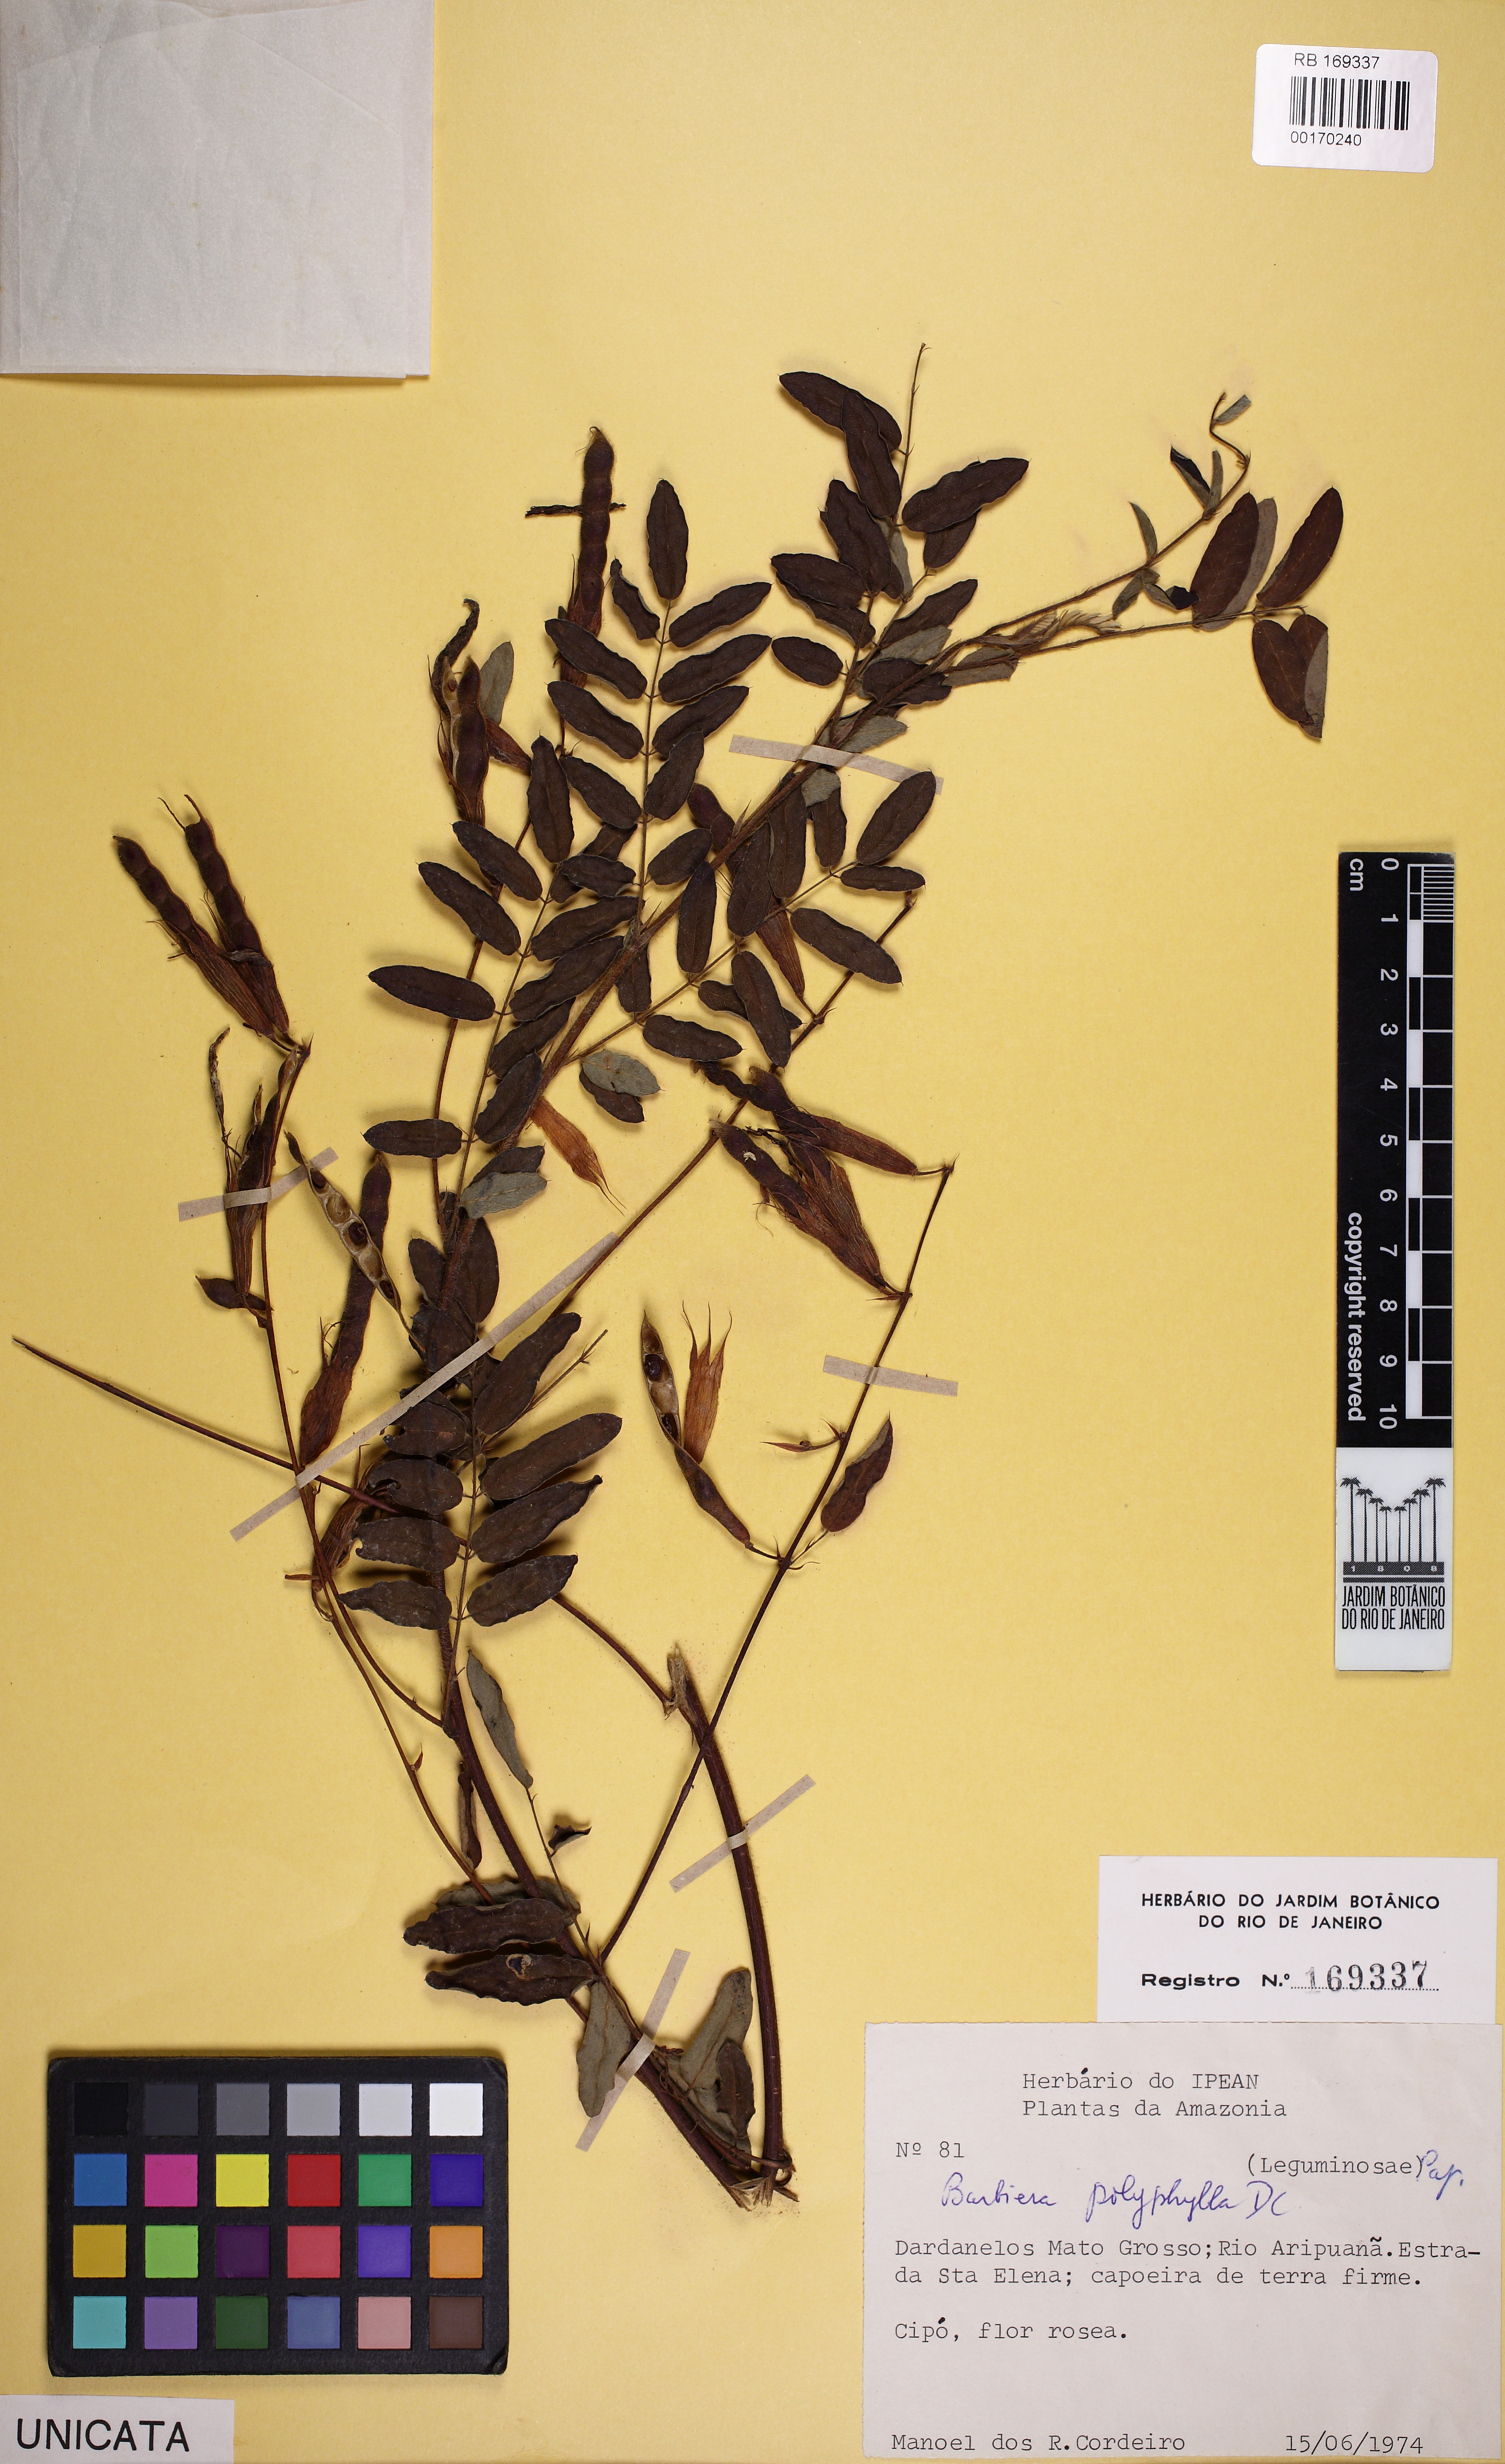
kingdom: Plantae
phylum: Tracheophyta
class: Magnoliopsida
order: Fabales
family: Fabaceae
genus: Barbieria
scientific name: Barbieria pinnata
